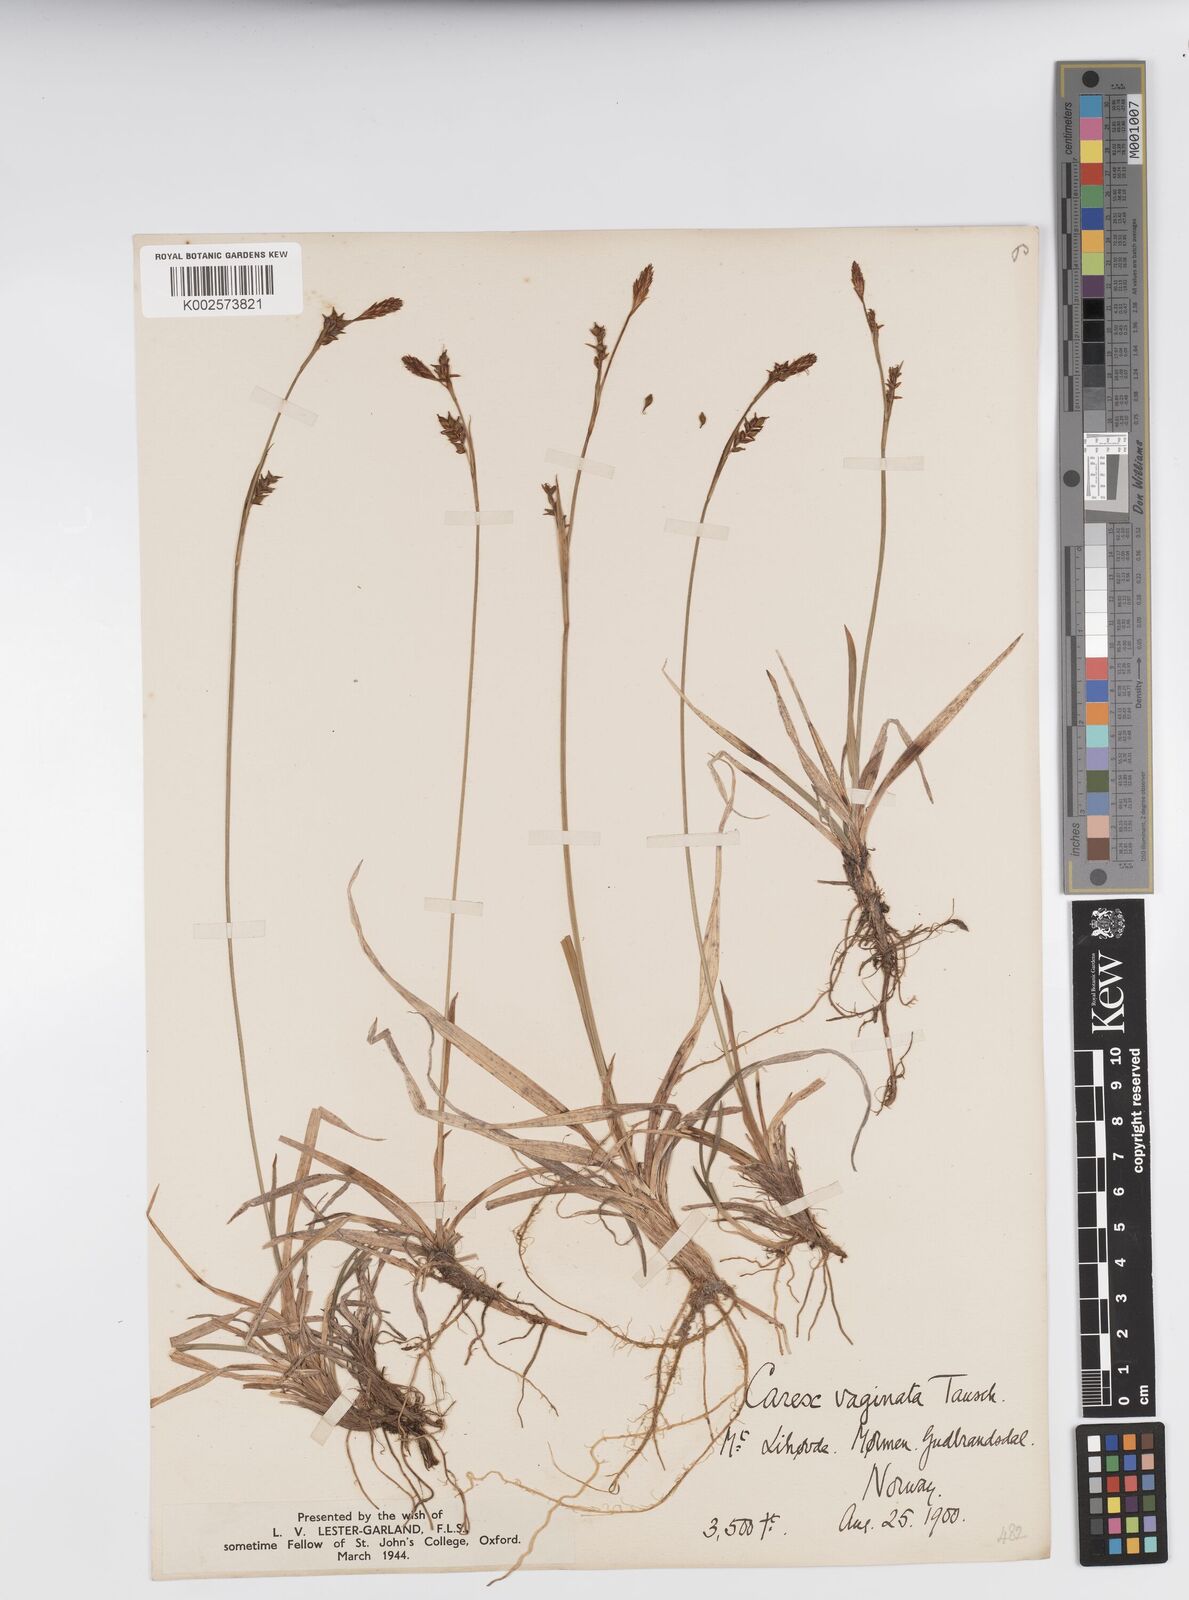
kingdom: Plantae
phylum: Tracheophyta
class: Liliopsida
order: Poales
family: Cyperaceae
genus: Carex
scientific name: Carex vaginata
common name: Sheathed sedge
